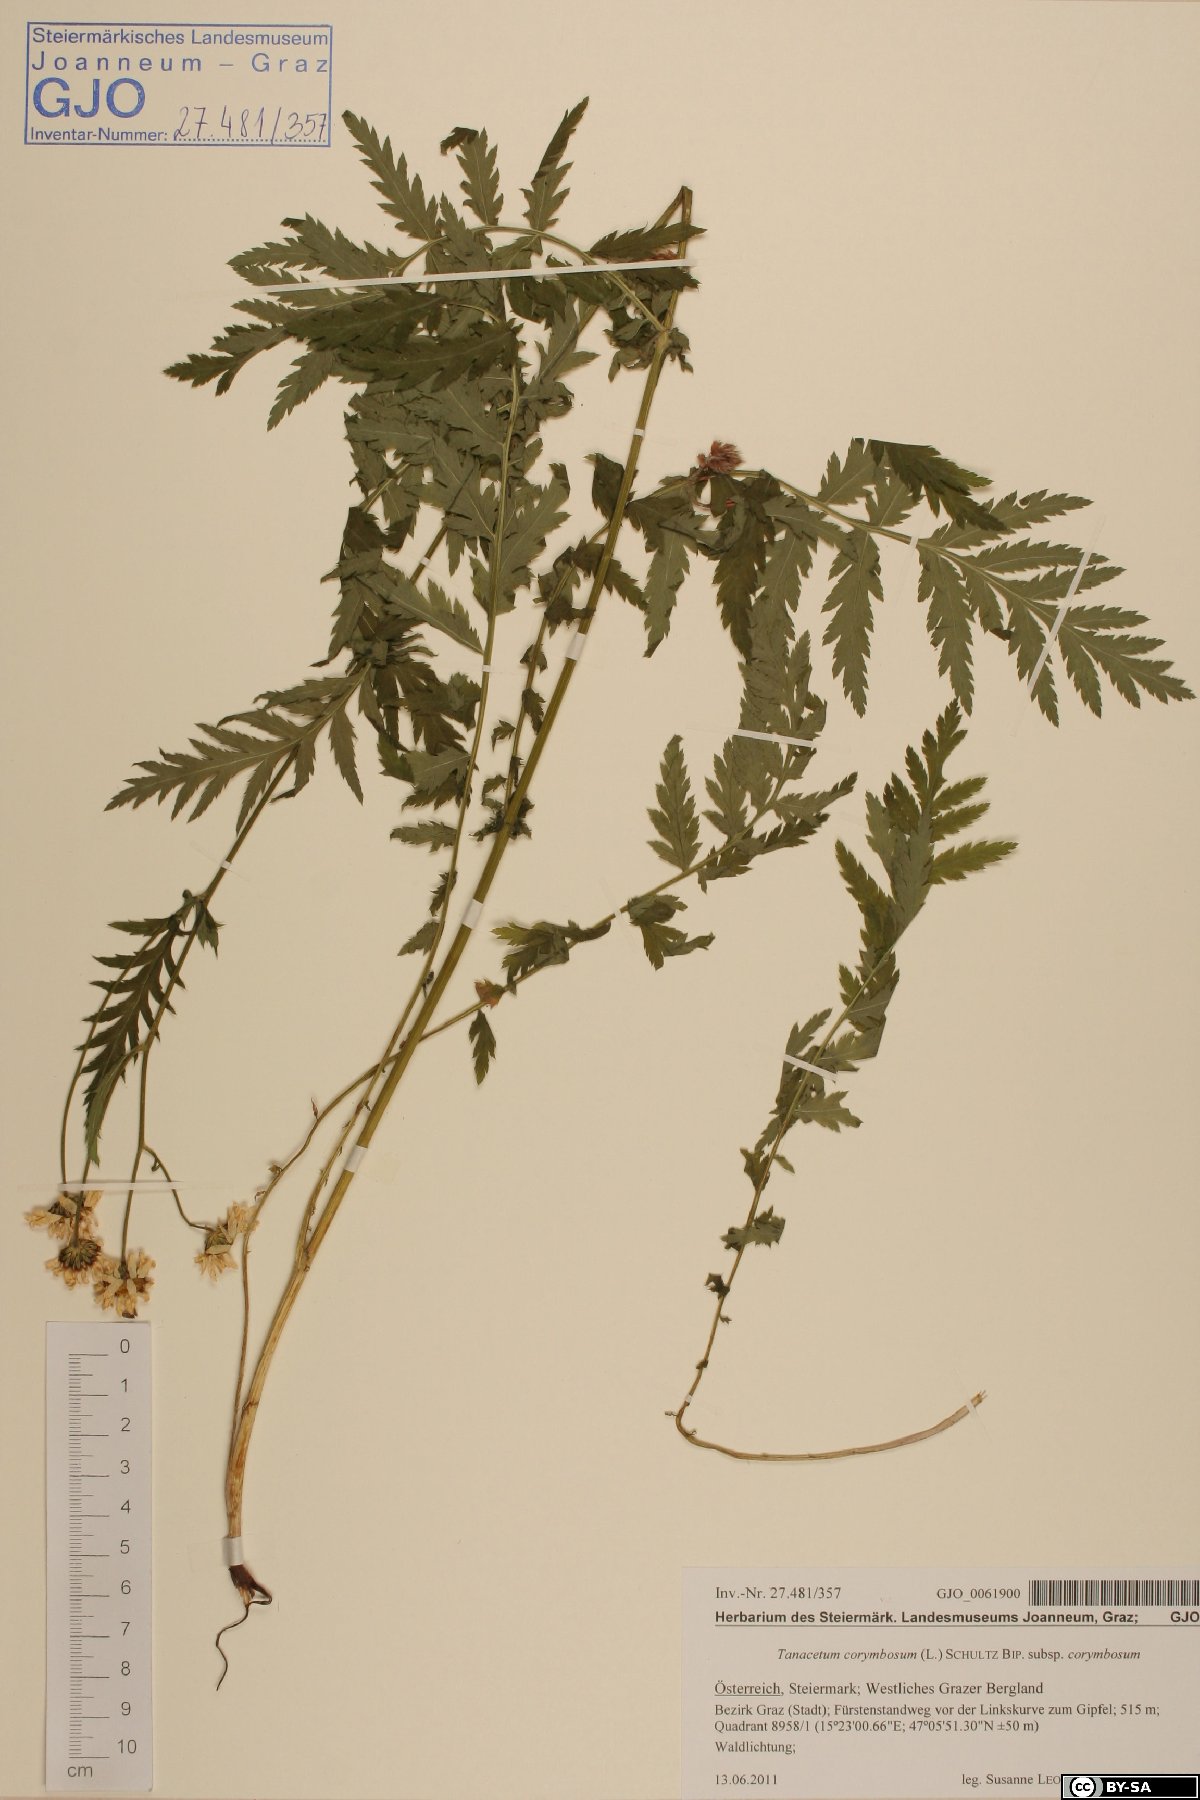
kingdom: Plantae
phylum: Tracheophyta
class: Magnoliopsida
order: Asterales
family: Asteraceae
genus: Tanacetum
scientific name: Tanacetum corymbosum
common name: Scentless feverfew
